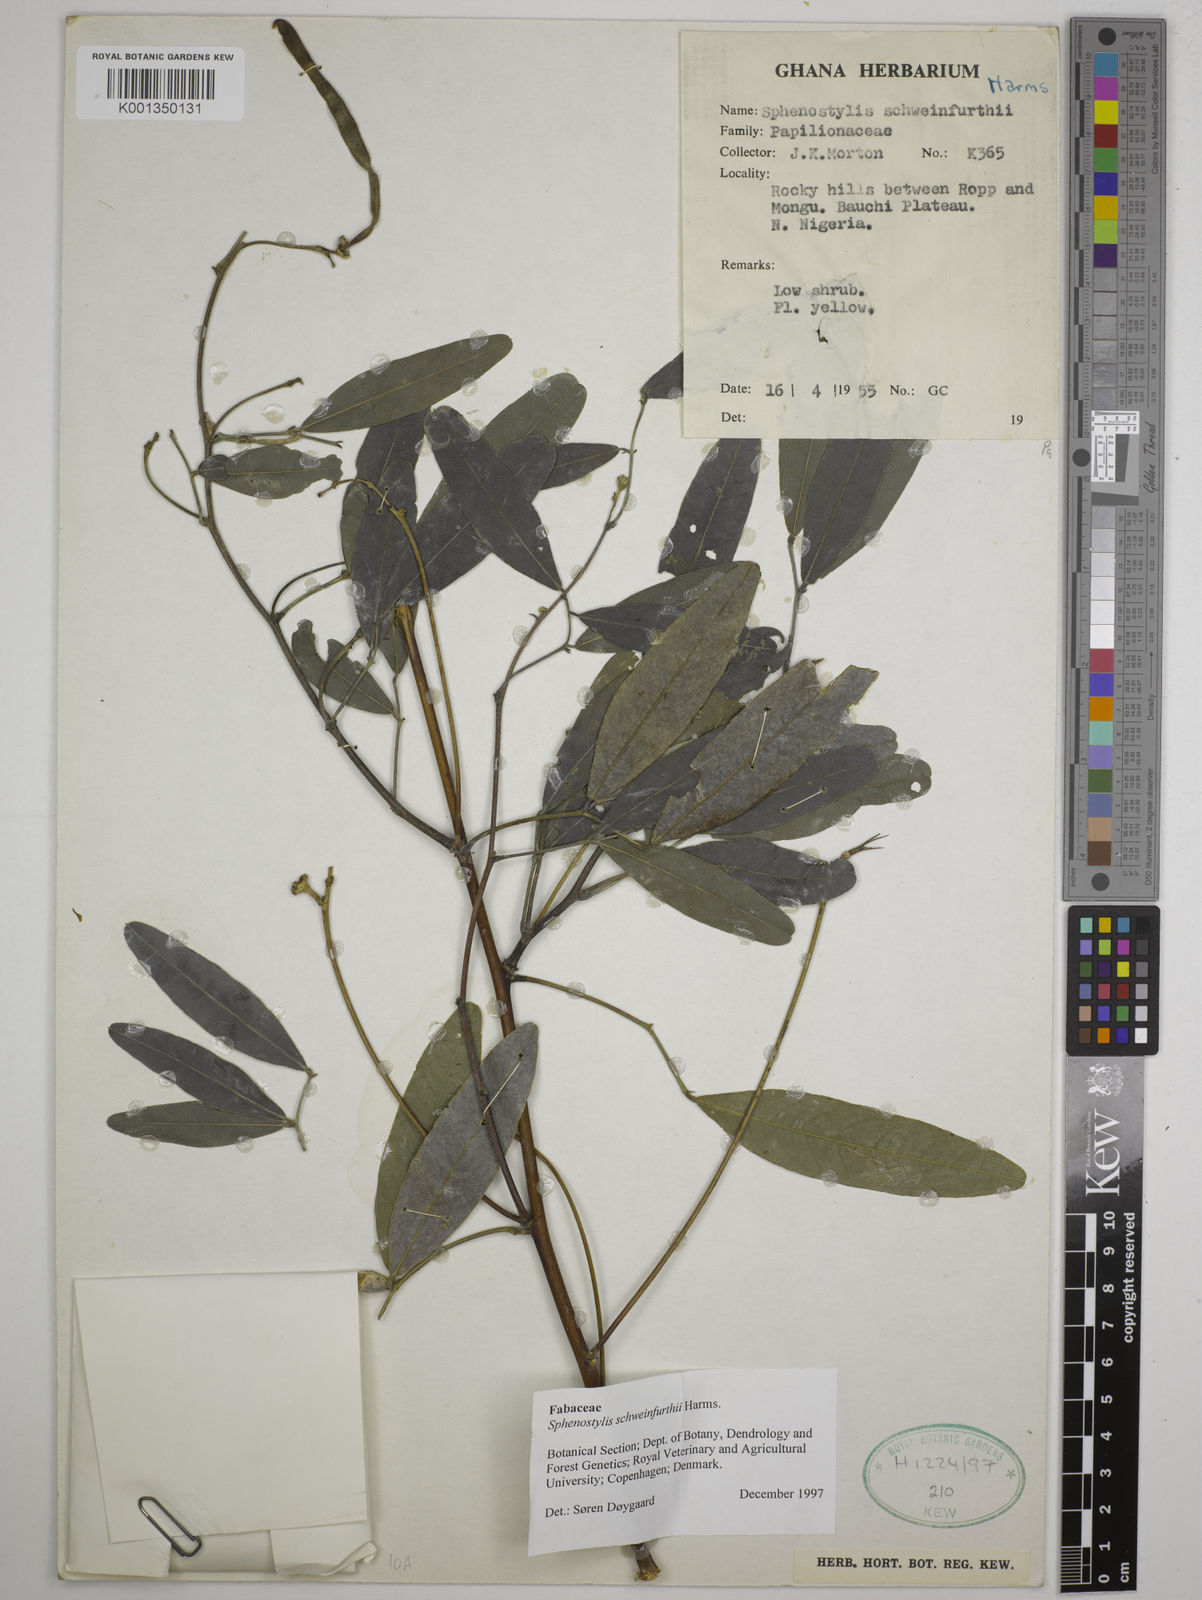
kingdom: Plantae
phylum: Tracheophyta
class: Magnoliopsida
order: Fabales
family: Fabaceae
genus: Sphenostylis
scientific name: Sphenostylis schweinfurthii
